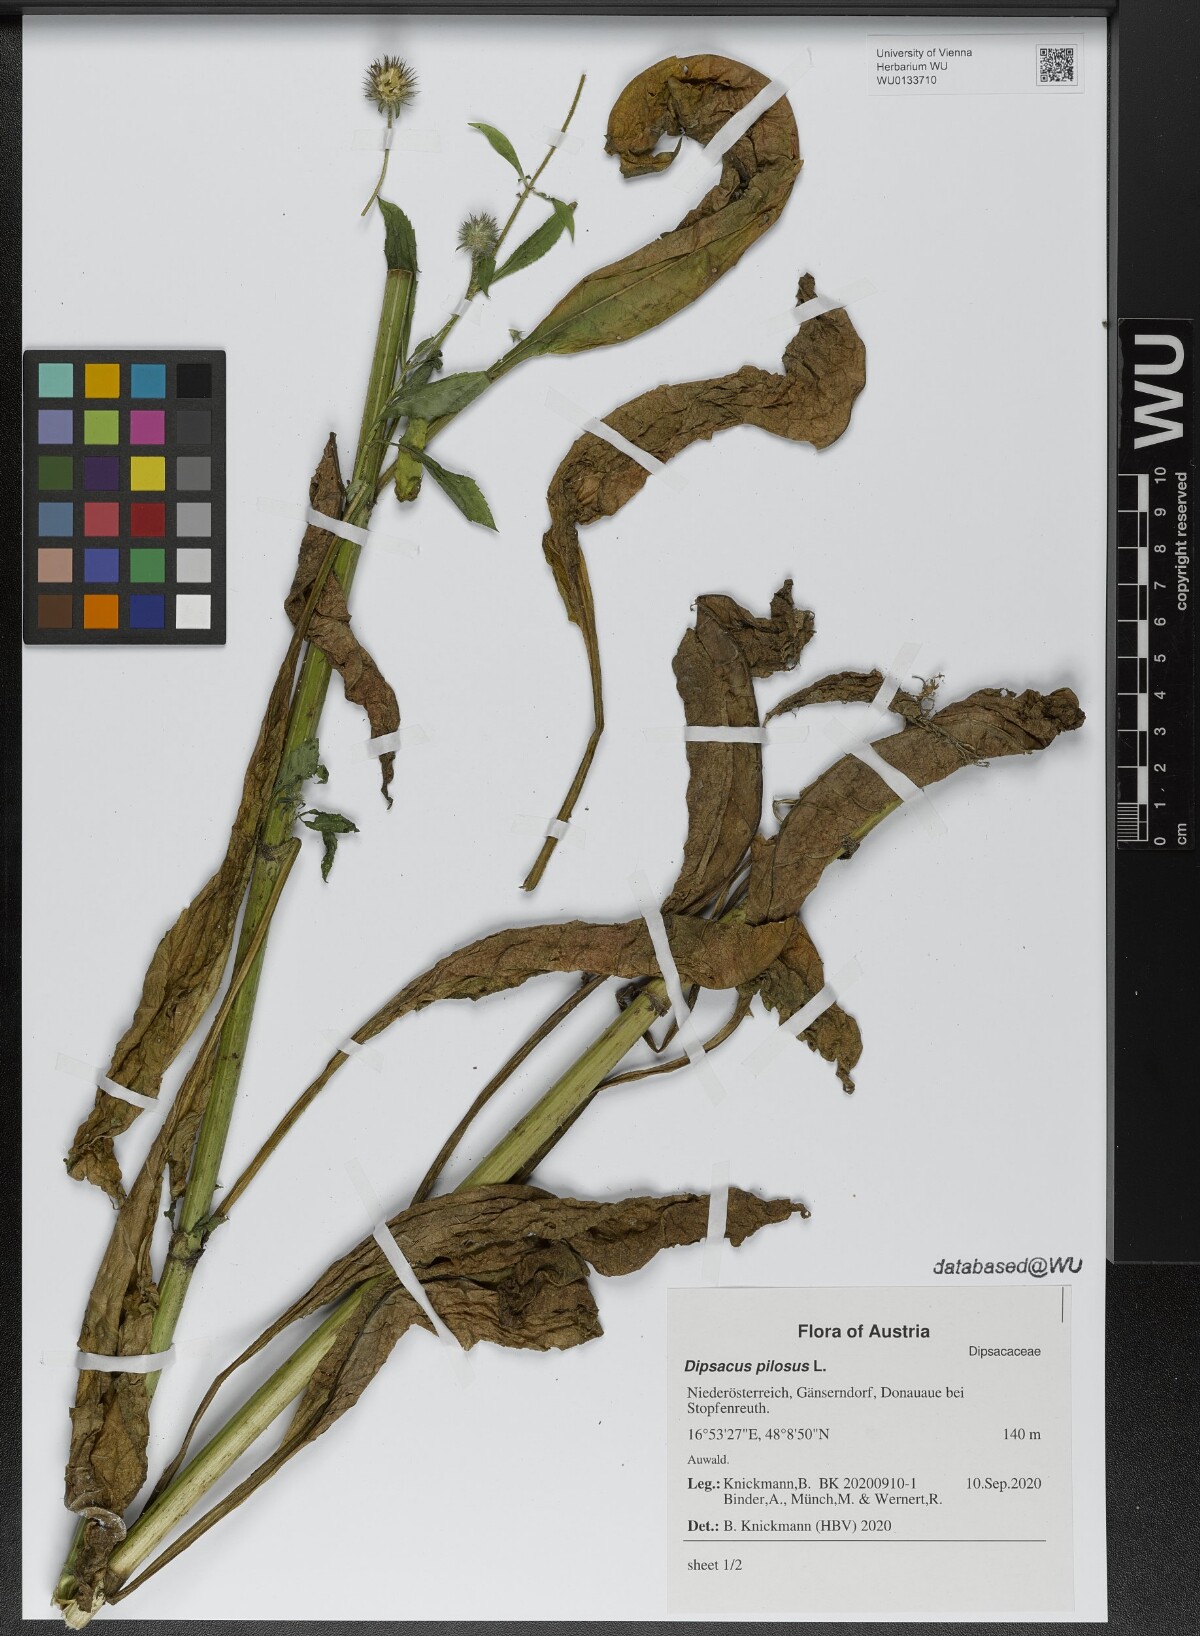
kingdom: Plantae
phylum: Tracheophyta
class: Magnoliopsida
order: Dipsacales
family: Caprifoliaceae
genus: Dipsacus
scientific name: Dipsacus pilosus
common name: Small teasel
